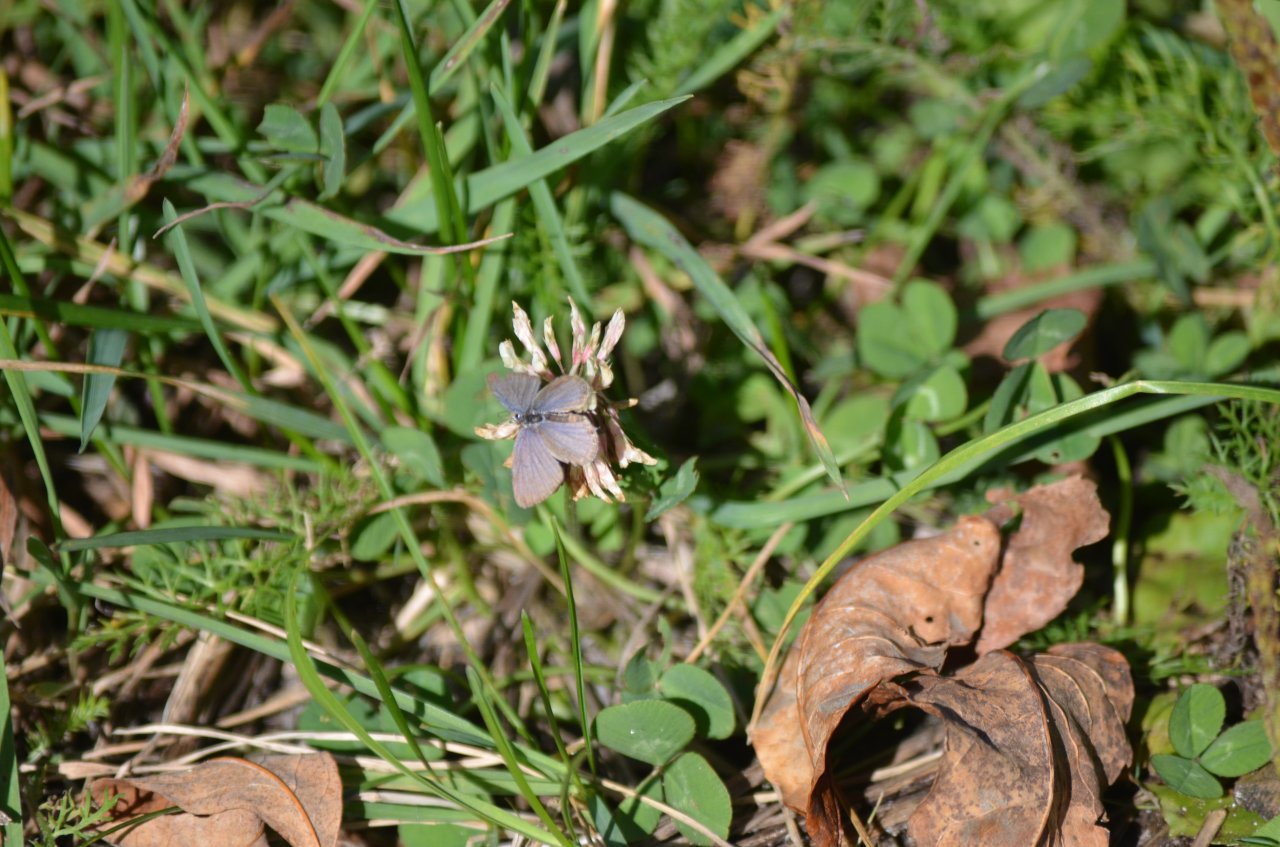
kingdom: Animalia
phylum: Arthropoda
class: Insecta
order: Lepidoptera
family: Lycaenidae
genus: Elkalyce
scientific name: Elkalyce comyntas
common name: Eastern Tailed-Blue
